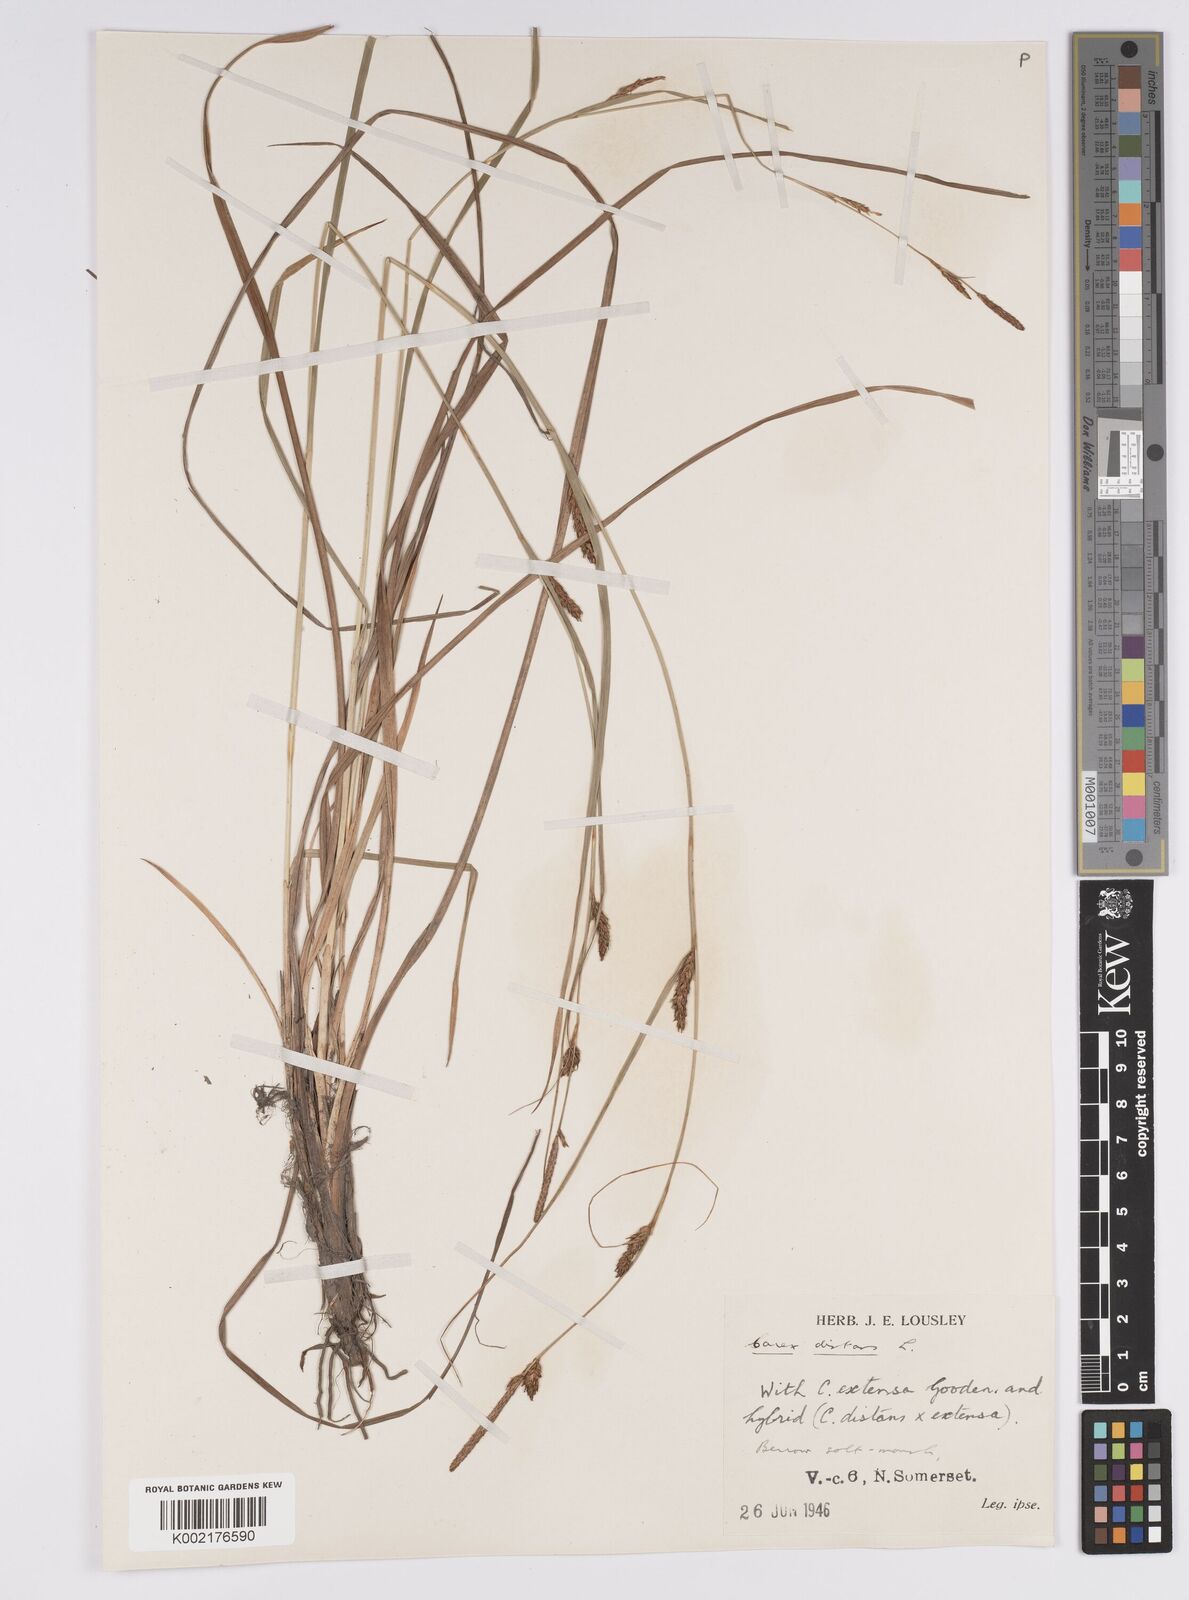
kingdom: Plantae
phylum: Tracheophyta
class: Liliopsida
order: Poales
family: Cyperaceae
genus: Carex
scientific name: Carex distans
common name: Distant sedge
